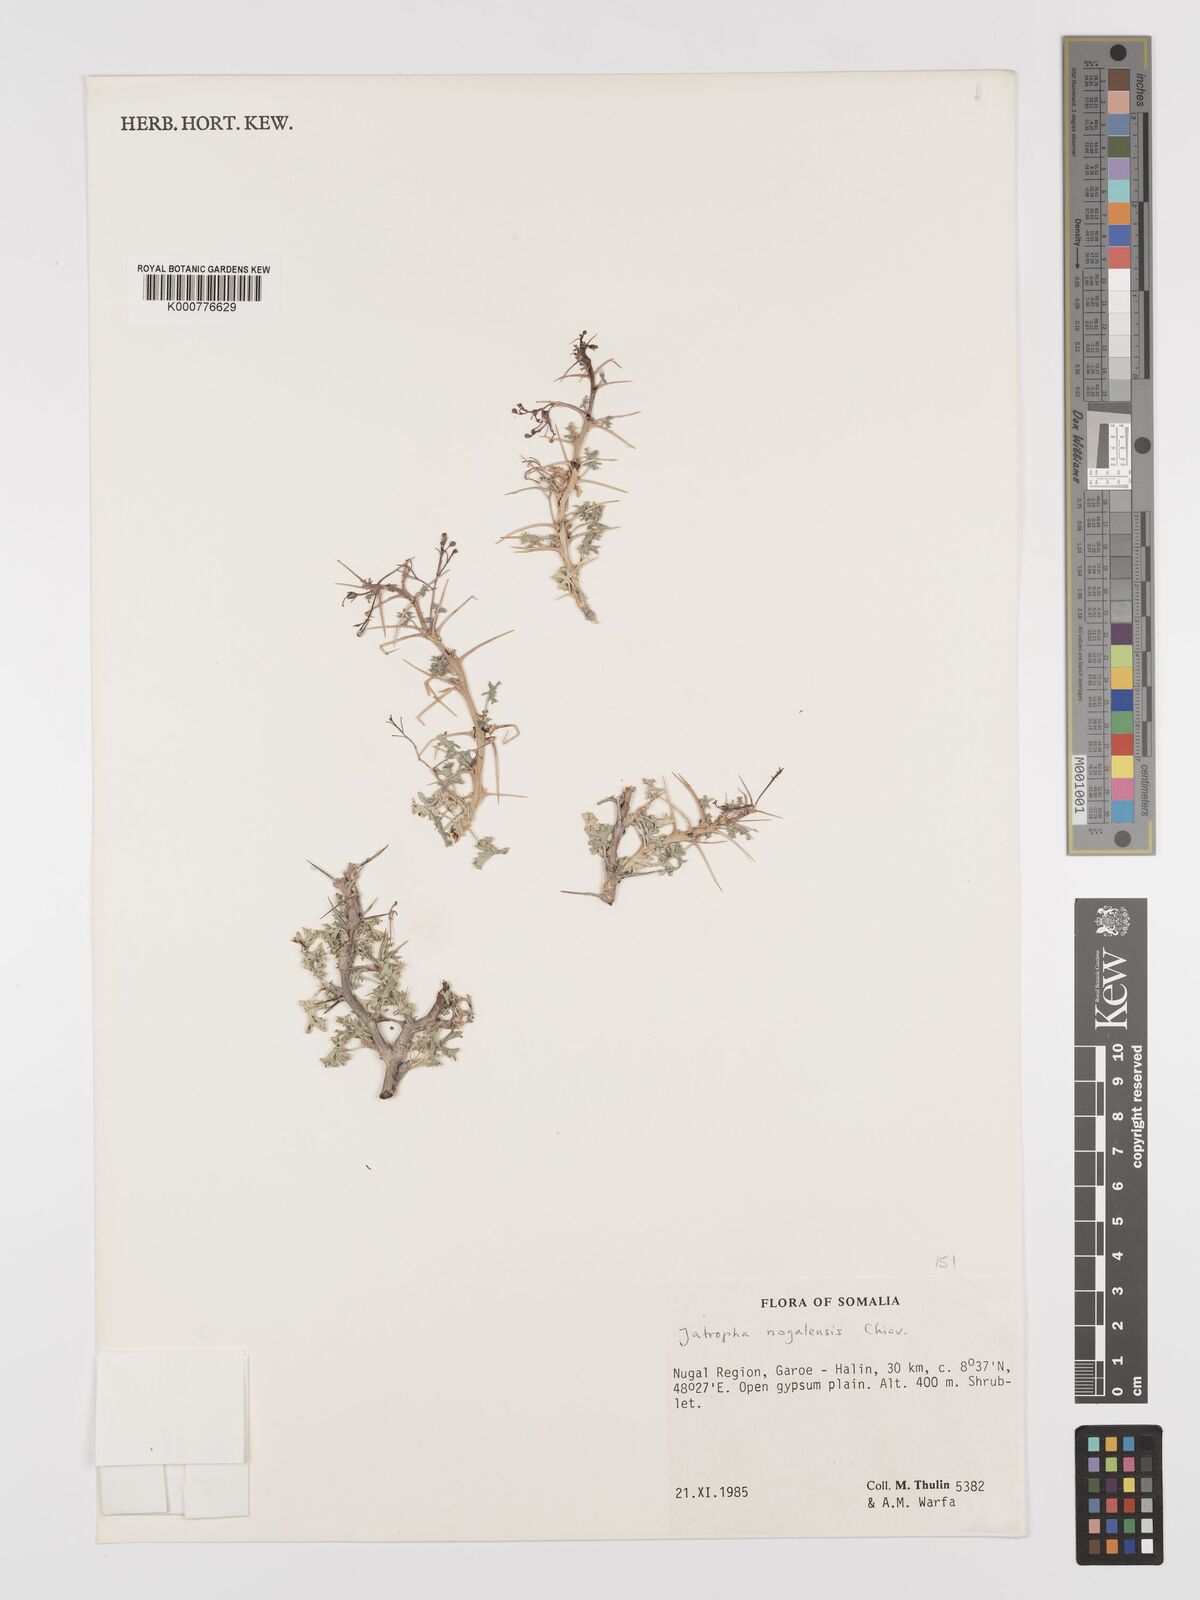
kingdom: Plantae
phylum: Tracheophyta
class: Magnoliopsida
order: Malpighiales
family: Euphorbiaceae
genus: Jatropha
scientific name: Jatropha nogalensis
